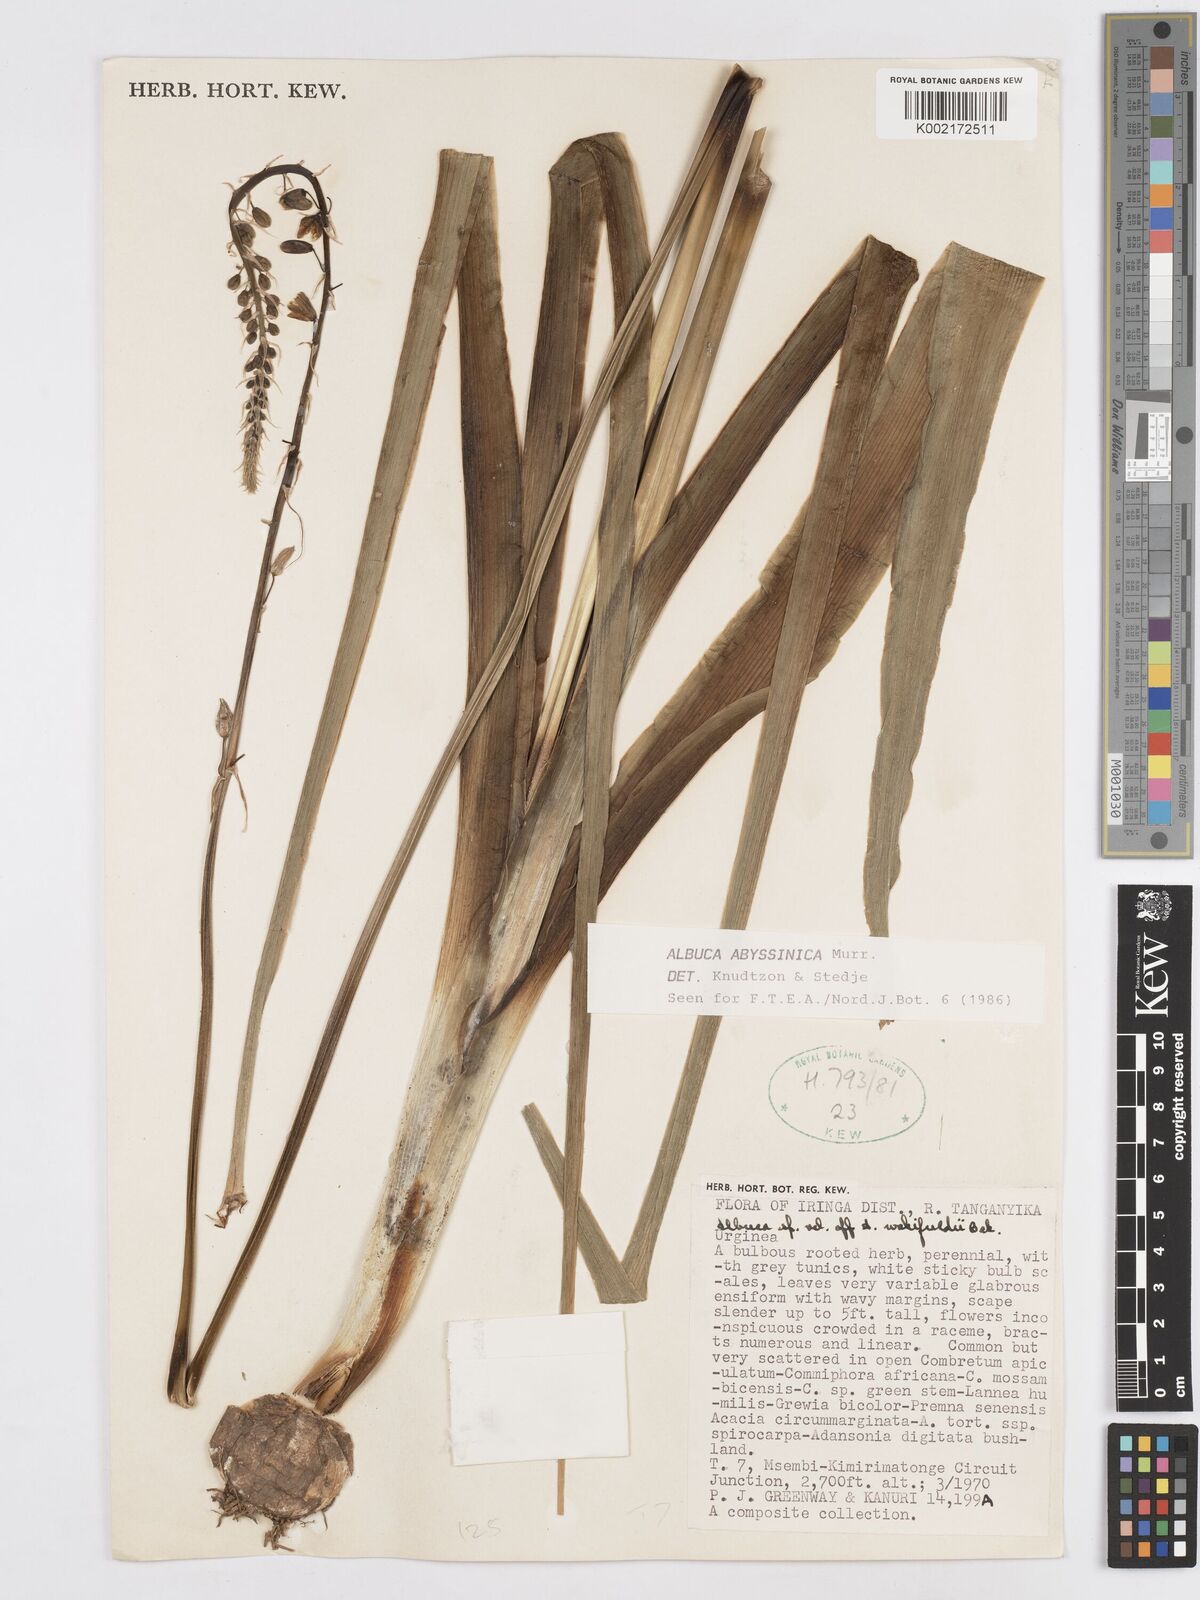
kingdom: Plantae
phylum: Tracheophyta
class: Liliopsida
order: Asparagales
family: Asparagaceae
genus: Albuca
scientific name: Albuca abyssinica
